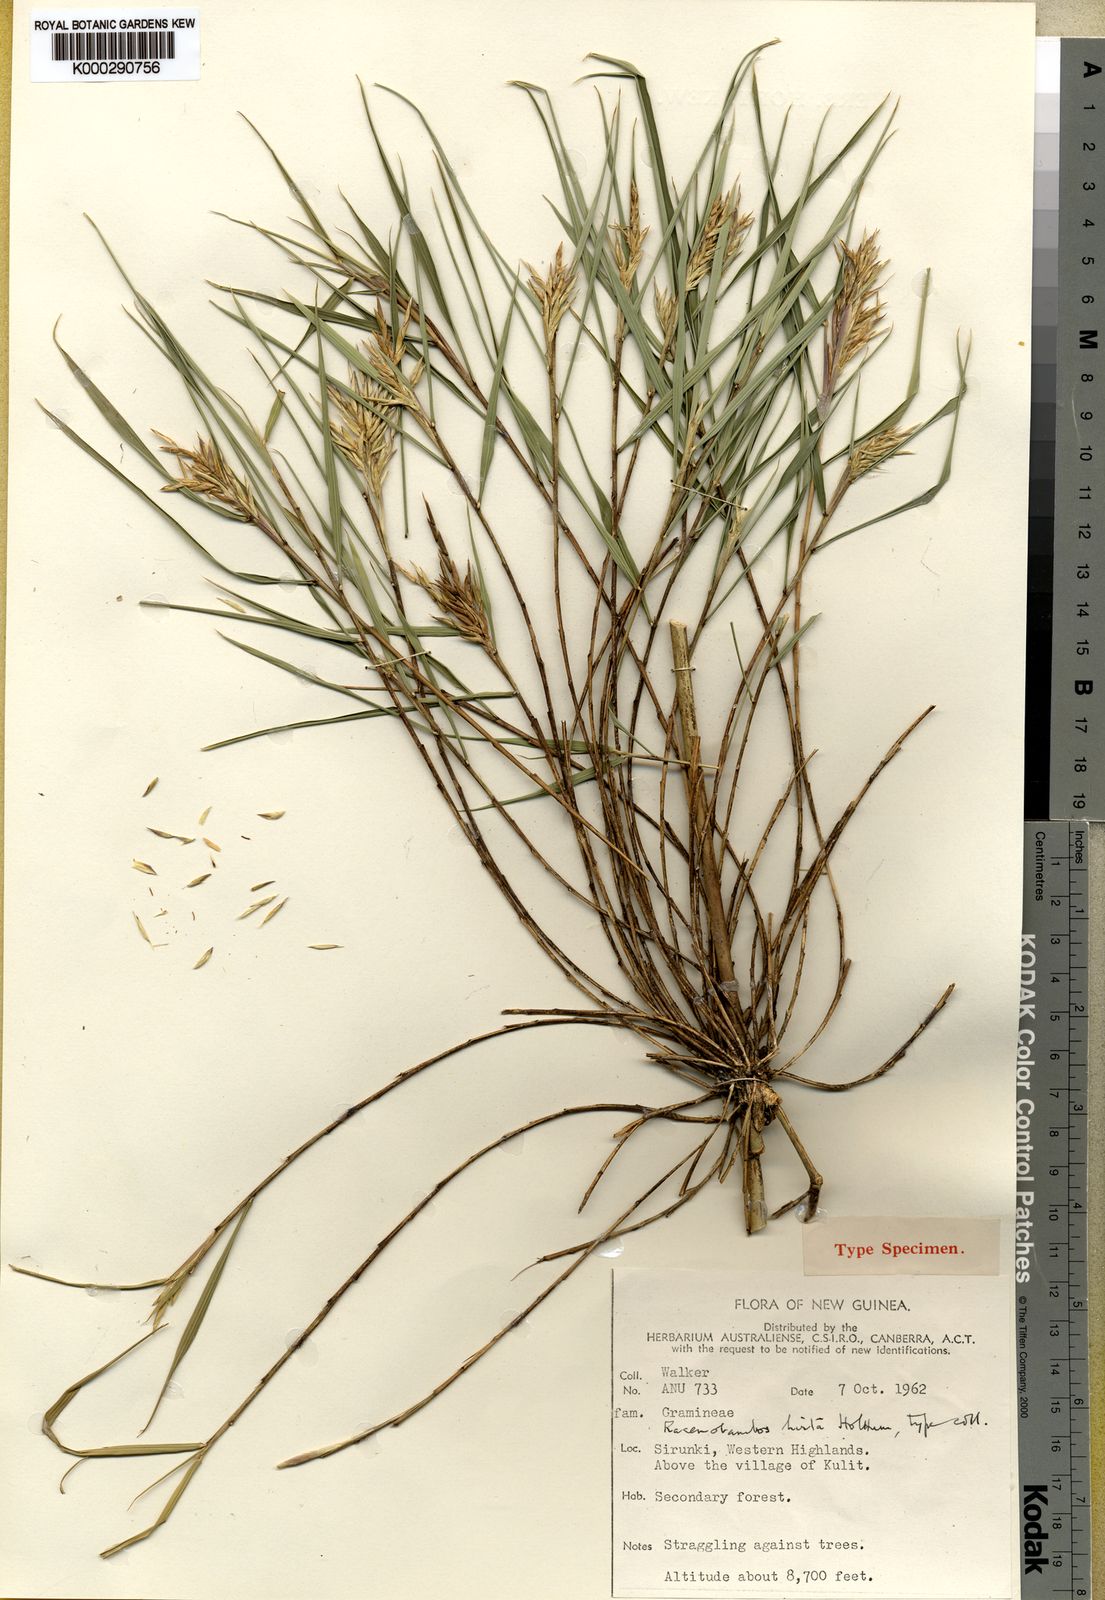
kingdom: Plantae
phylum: Tracheophyta
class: Liliopsida
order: Poales
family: Poaceae
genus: Racemobambos
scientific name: Racemobambos hirta
